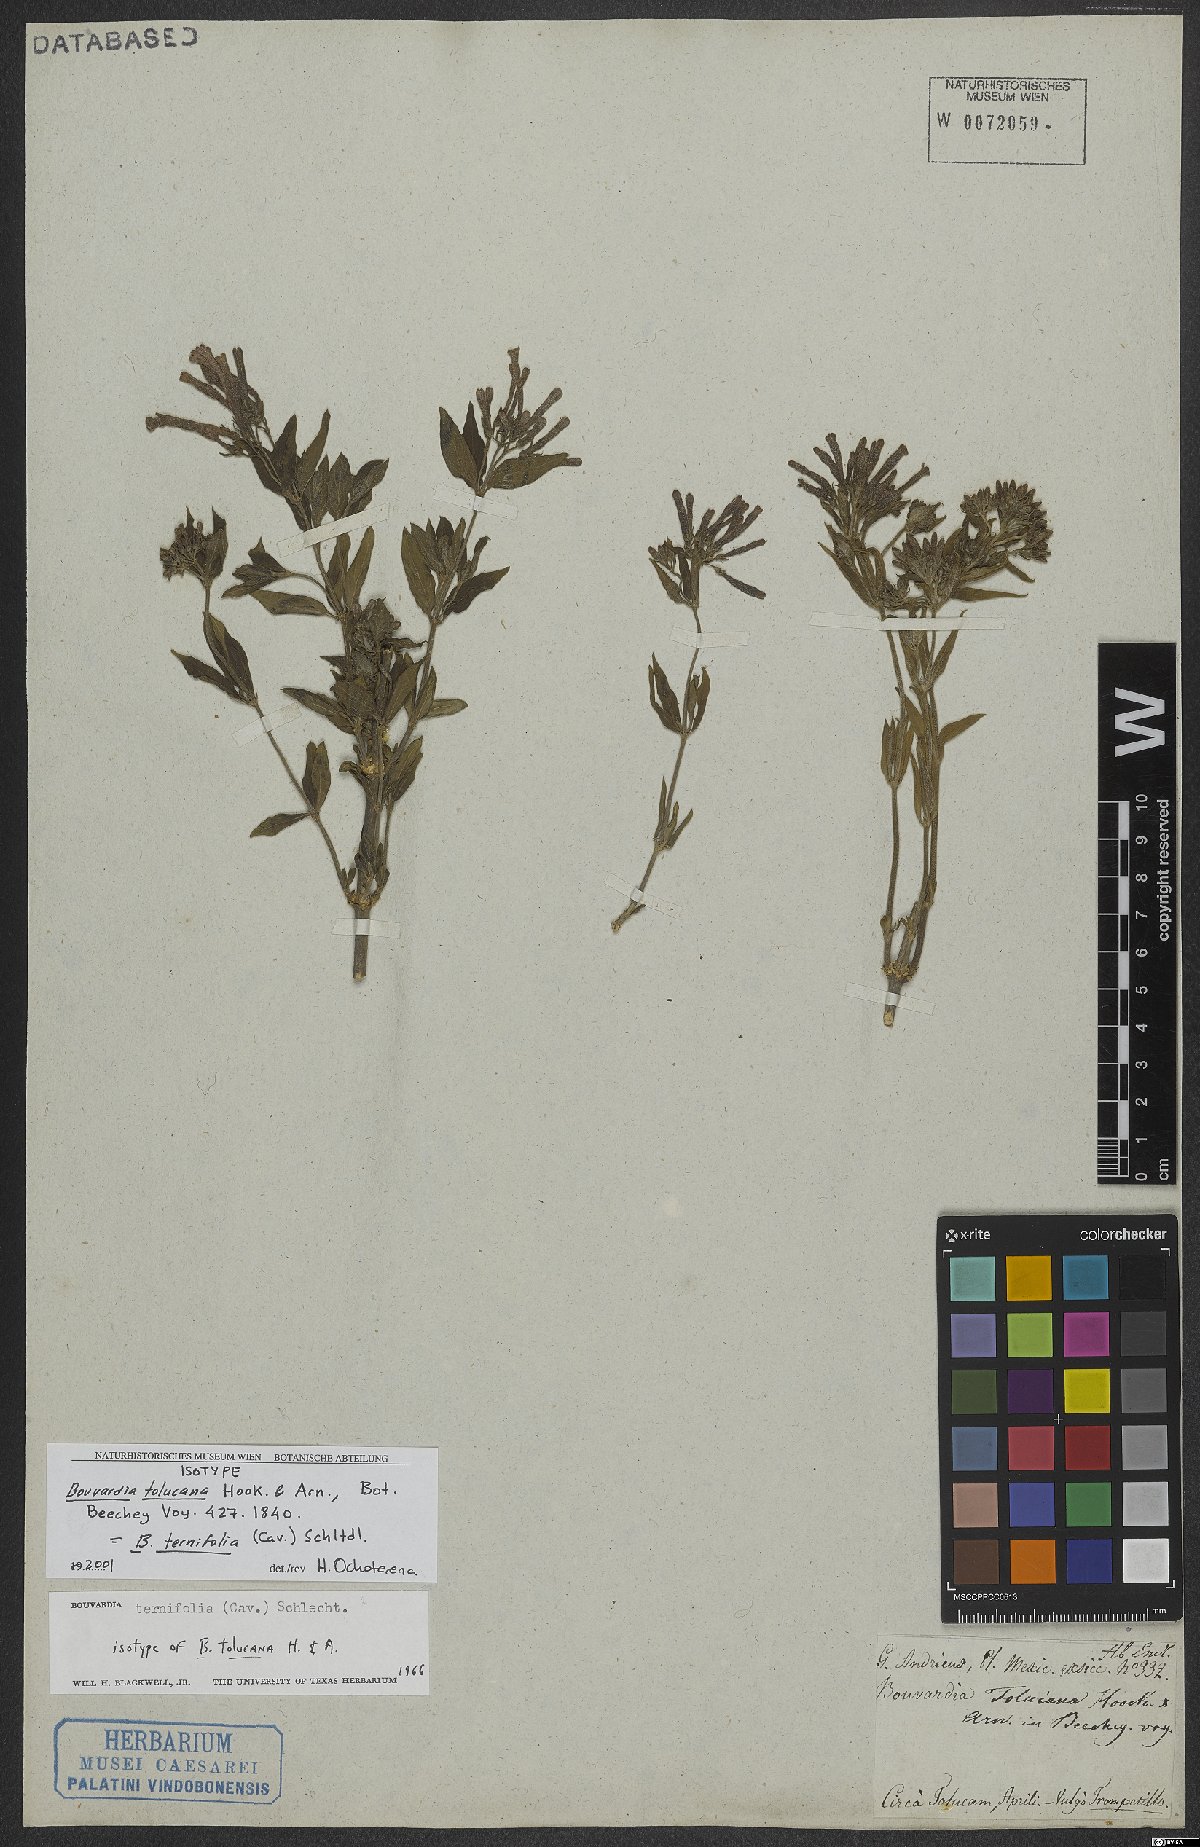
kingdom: Plantae
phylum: Tracheophyta
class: Magnoliopsida
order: Gentianales
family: Rubiaceae
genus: Bouvardia
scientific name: Bouvardia ternifolia
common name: Scarlet bouvardia
